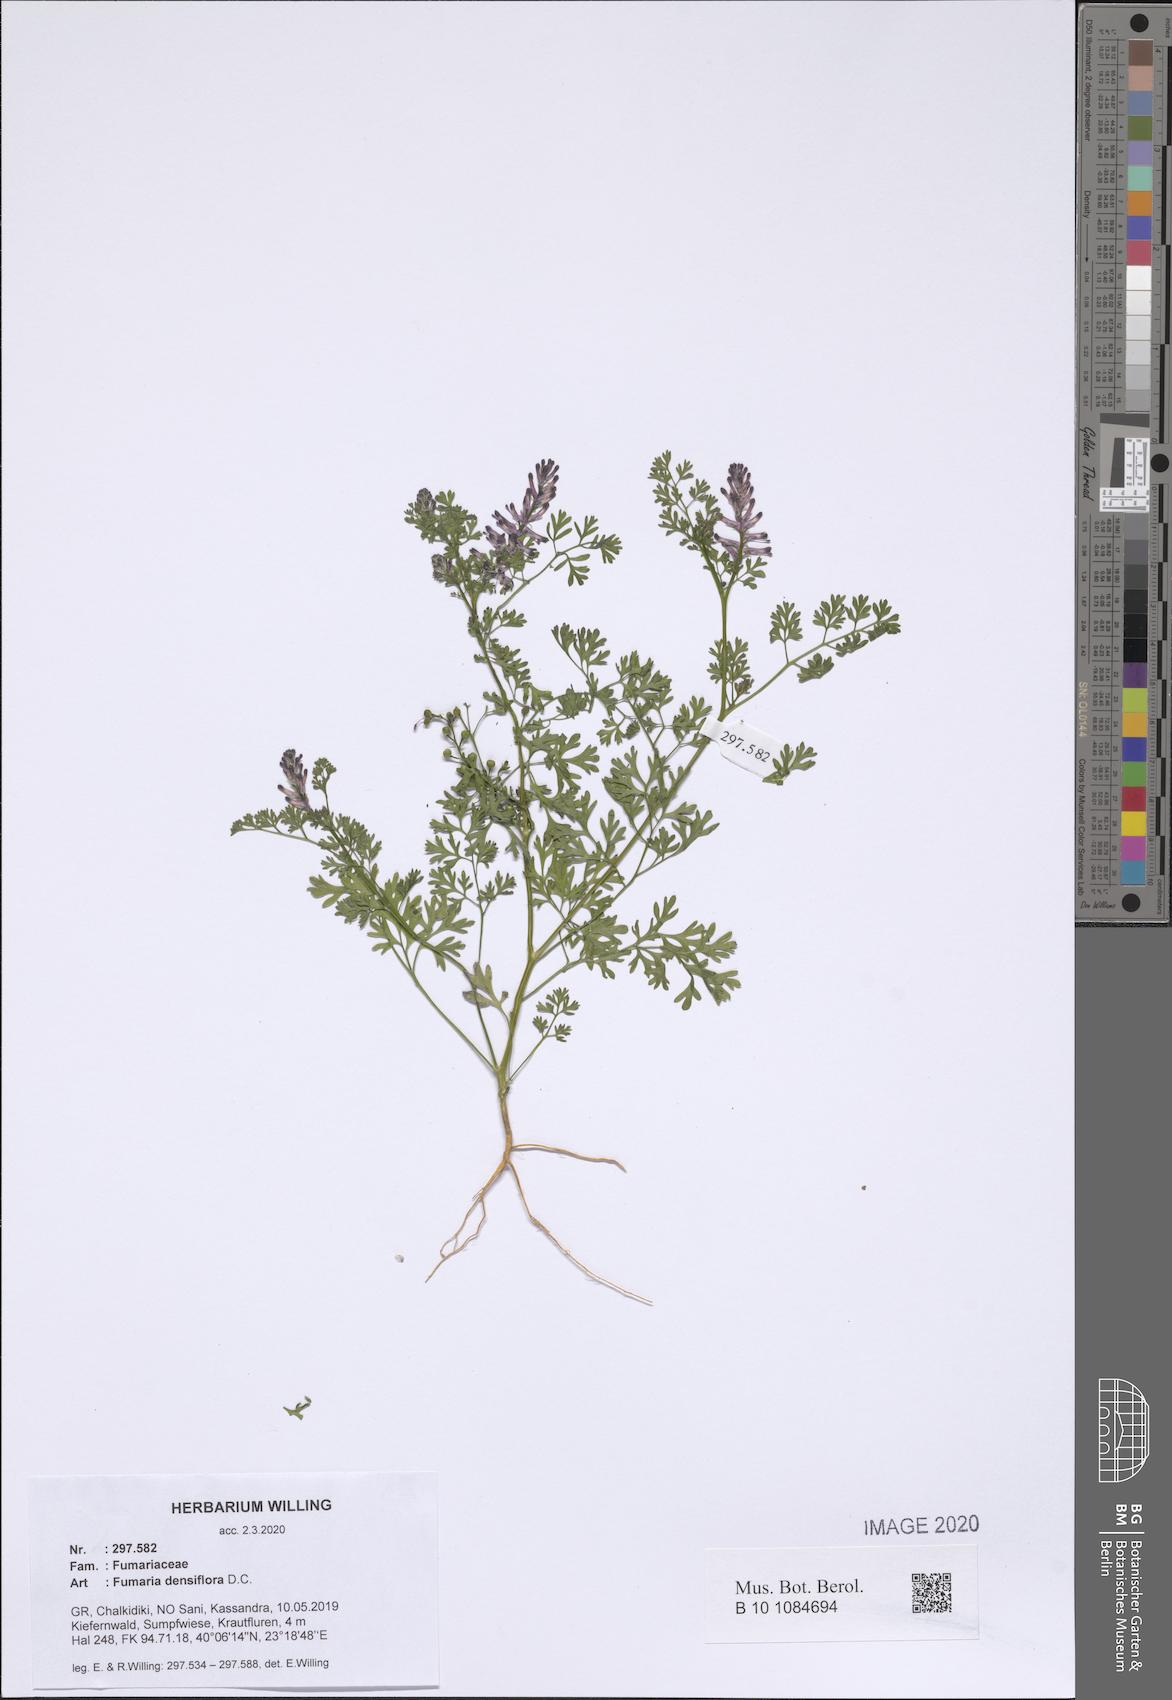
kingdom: Plantae
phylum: Tracheophyta
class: Magnoliopsida
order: Ranunculales
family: Papaveraceae
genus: Fumaria
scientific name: Fumaria densiflora
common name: Dense-flowered fumitory
